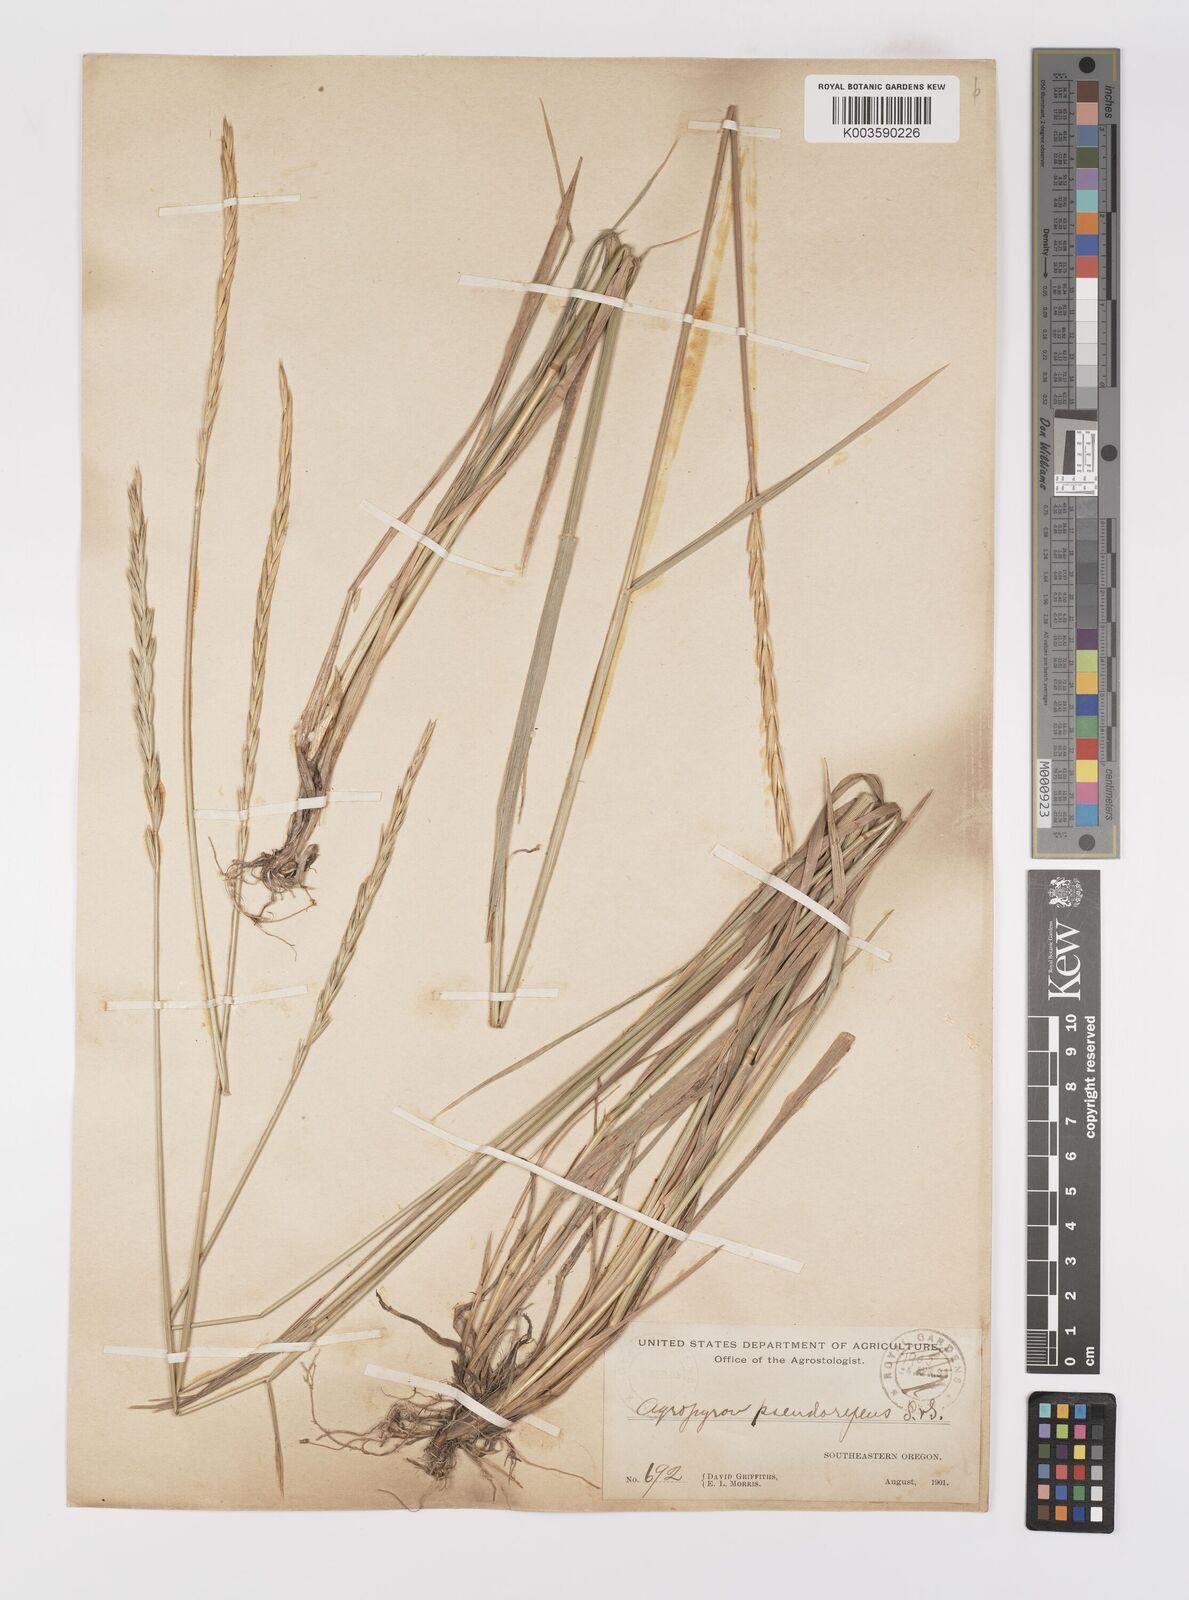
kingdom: Plantae
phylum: Tracheophyta
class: Liliopsida
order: Poales
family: Poaceae
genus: Elymus
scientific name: Elymus violaceus
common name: Arctic wheatgrass
